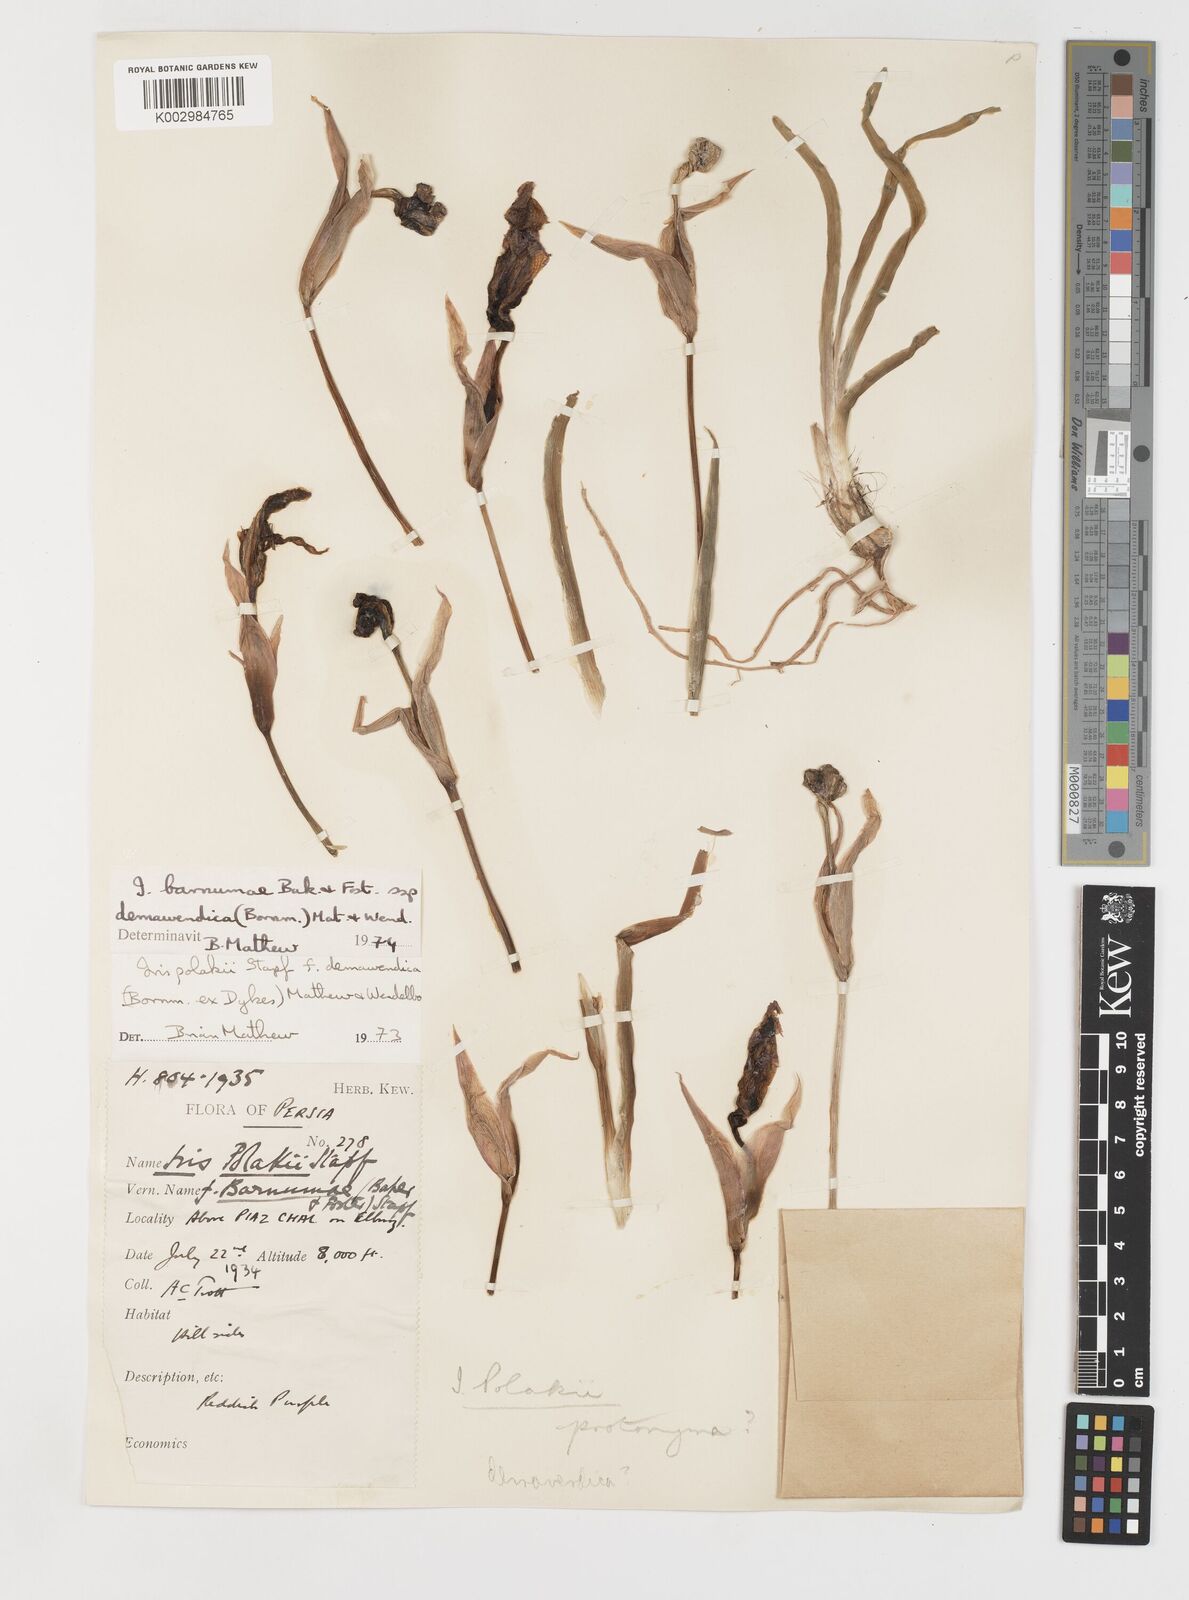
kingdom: Plantae
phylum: Tracheophyta
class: Liliopsida
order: Asparagales
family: Iridaceae
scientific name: Iridaceae
